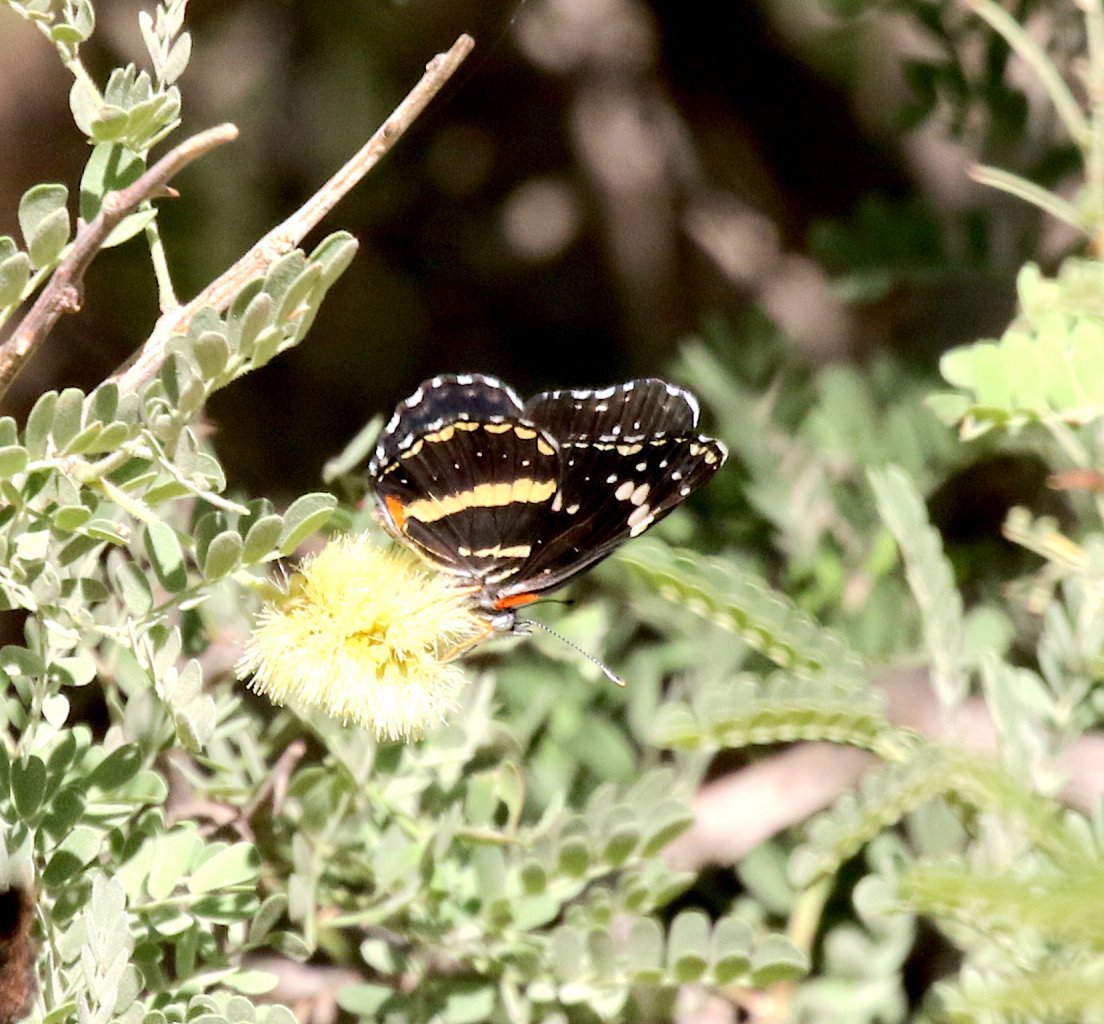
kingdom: Animalia
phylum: Arthropoda
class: Insecta
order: Lepidoptera
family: Nymphalidae
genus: Chlosyne
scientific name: Chlosyne lacinia
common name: Bordered Patch
